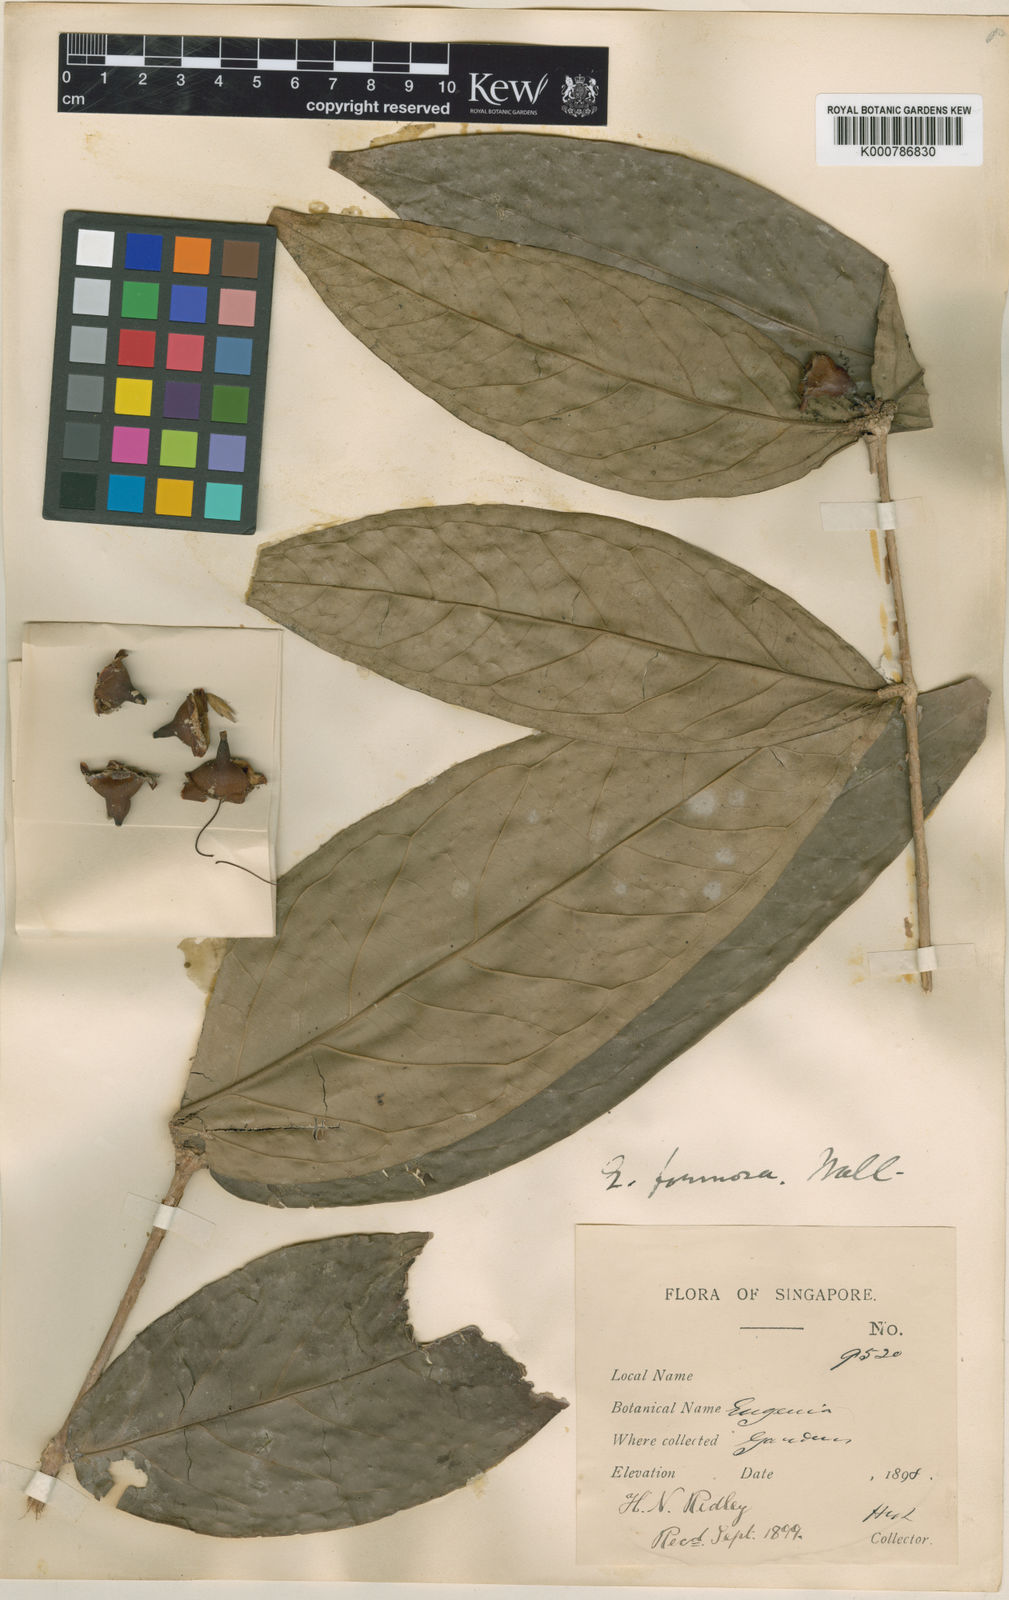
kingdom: Plantae
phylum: Tracheophyta
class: Magnoliopsida
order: Myrtales
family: Myrtaceae
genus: Syzygium
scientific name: Syzygium formosum
